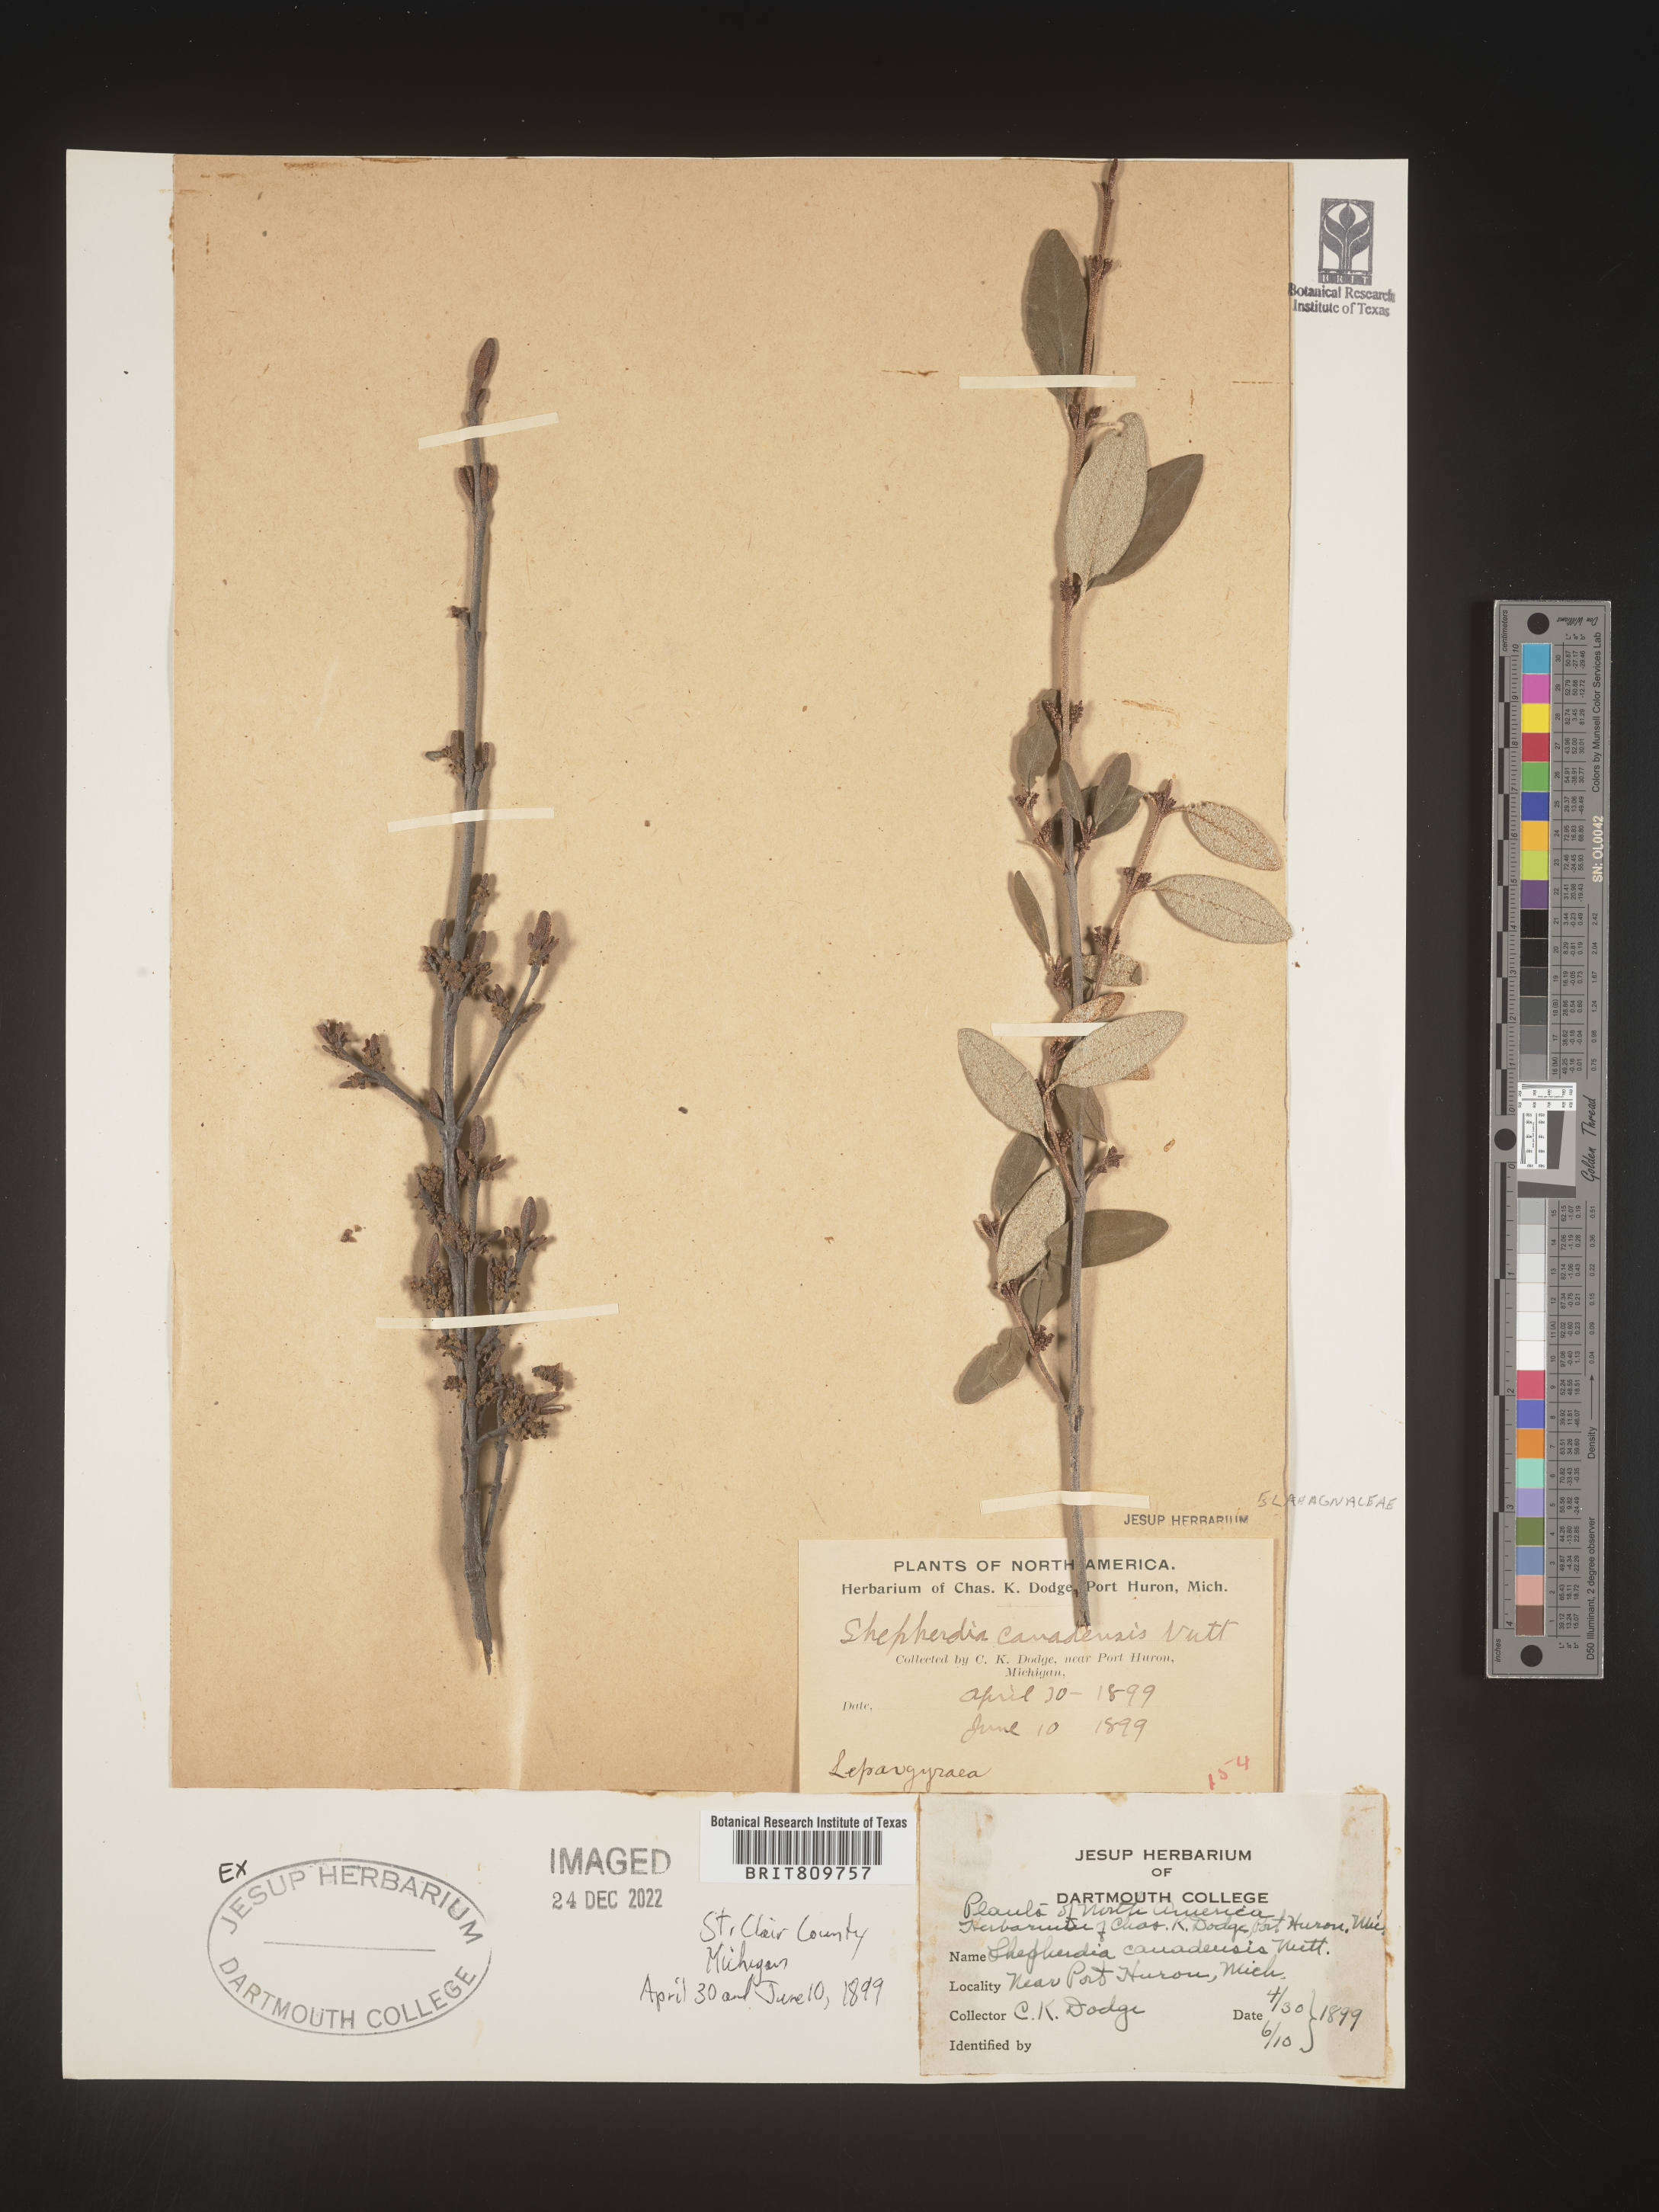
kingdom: Plantae
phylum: Tracheophyta
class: Magnoliopsida
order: Rosales
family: Elaeagnaceae
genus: Shepherdia
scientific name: Shepherdia canadensis
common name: Soapberry
